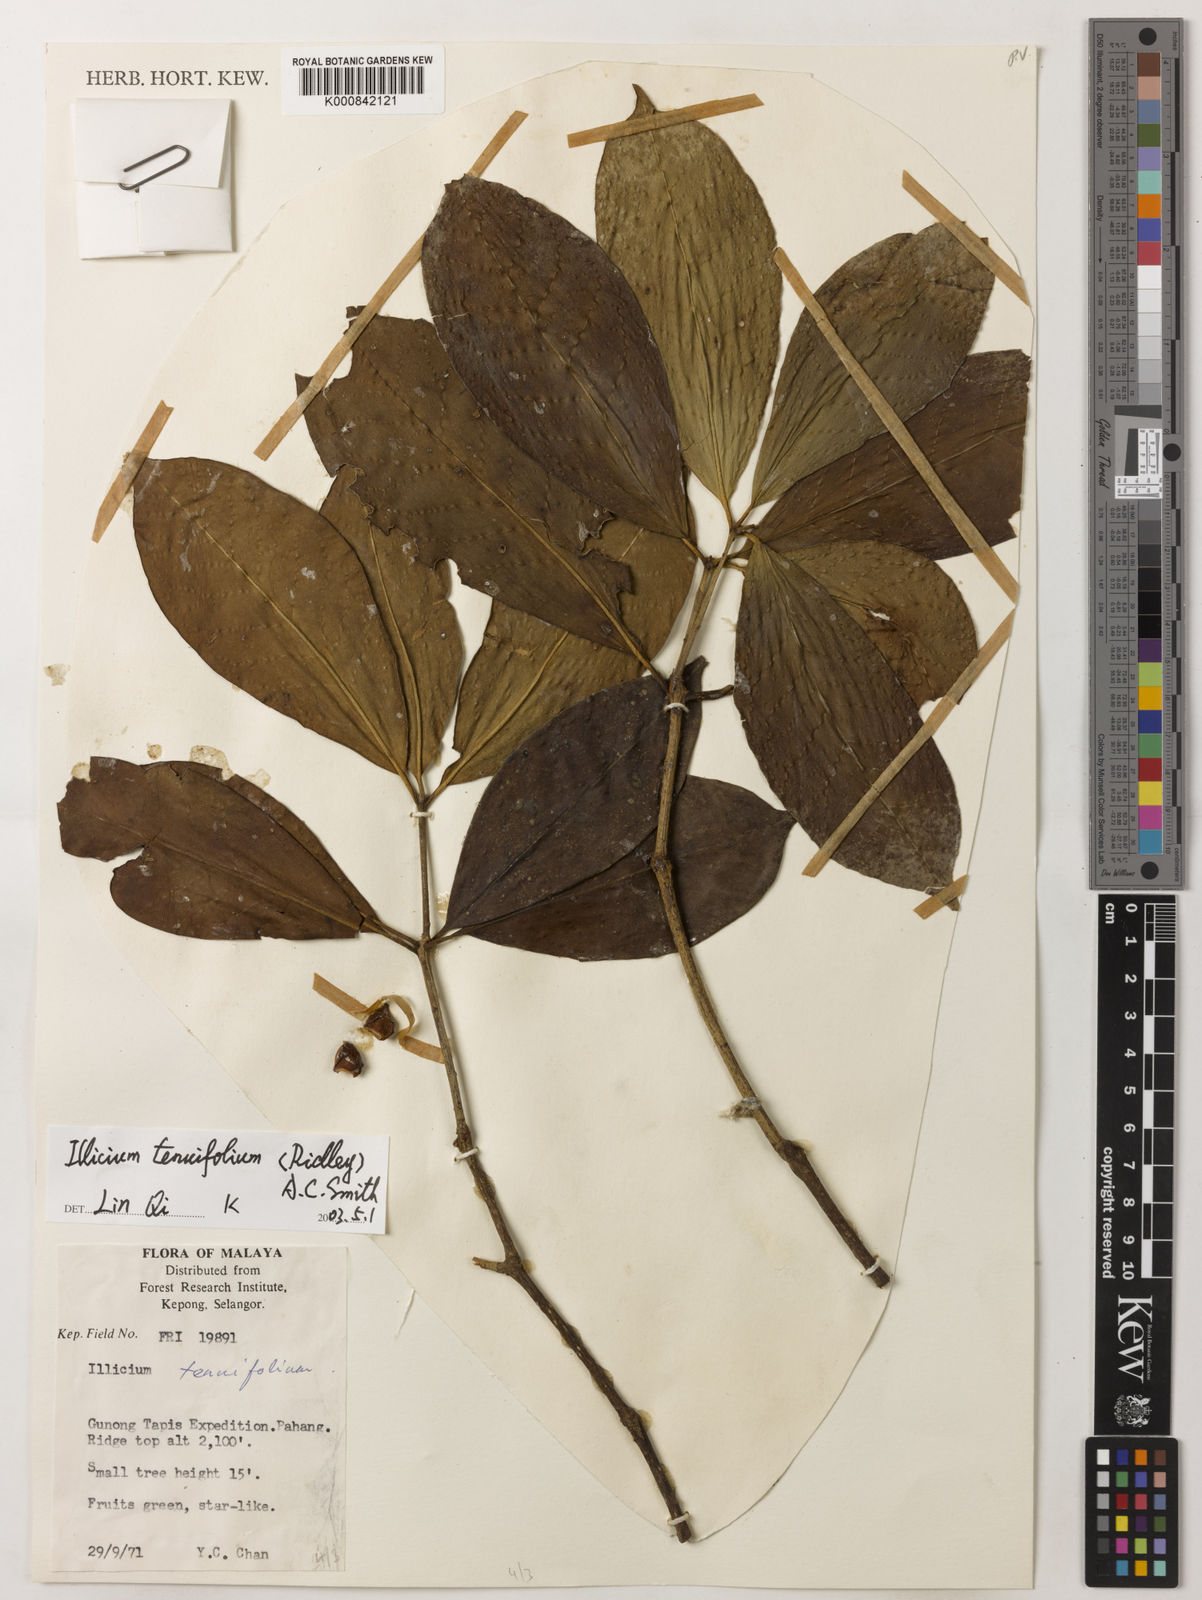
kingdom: Plantae
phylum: Tracheophyta
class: Magnoliopsida
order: Austrobaileyales
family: Schisandraceae
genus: Illicium
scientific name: Illicium tenuifolium
